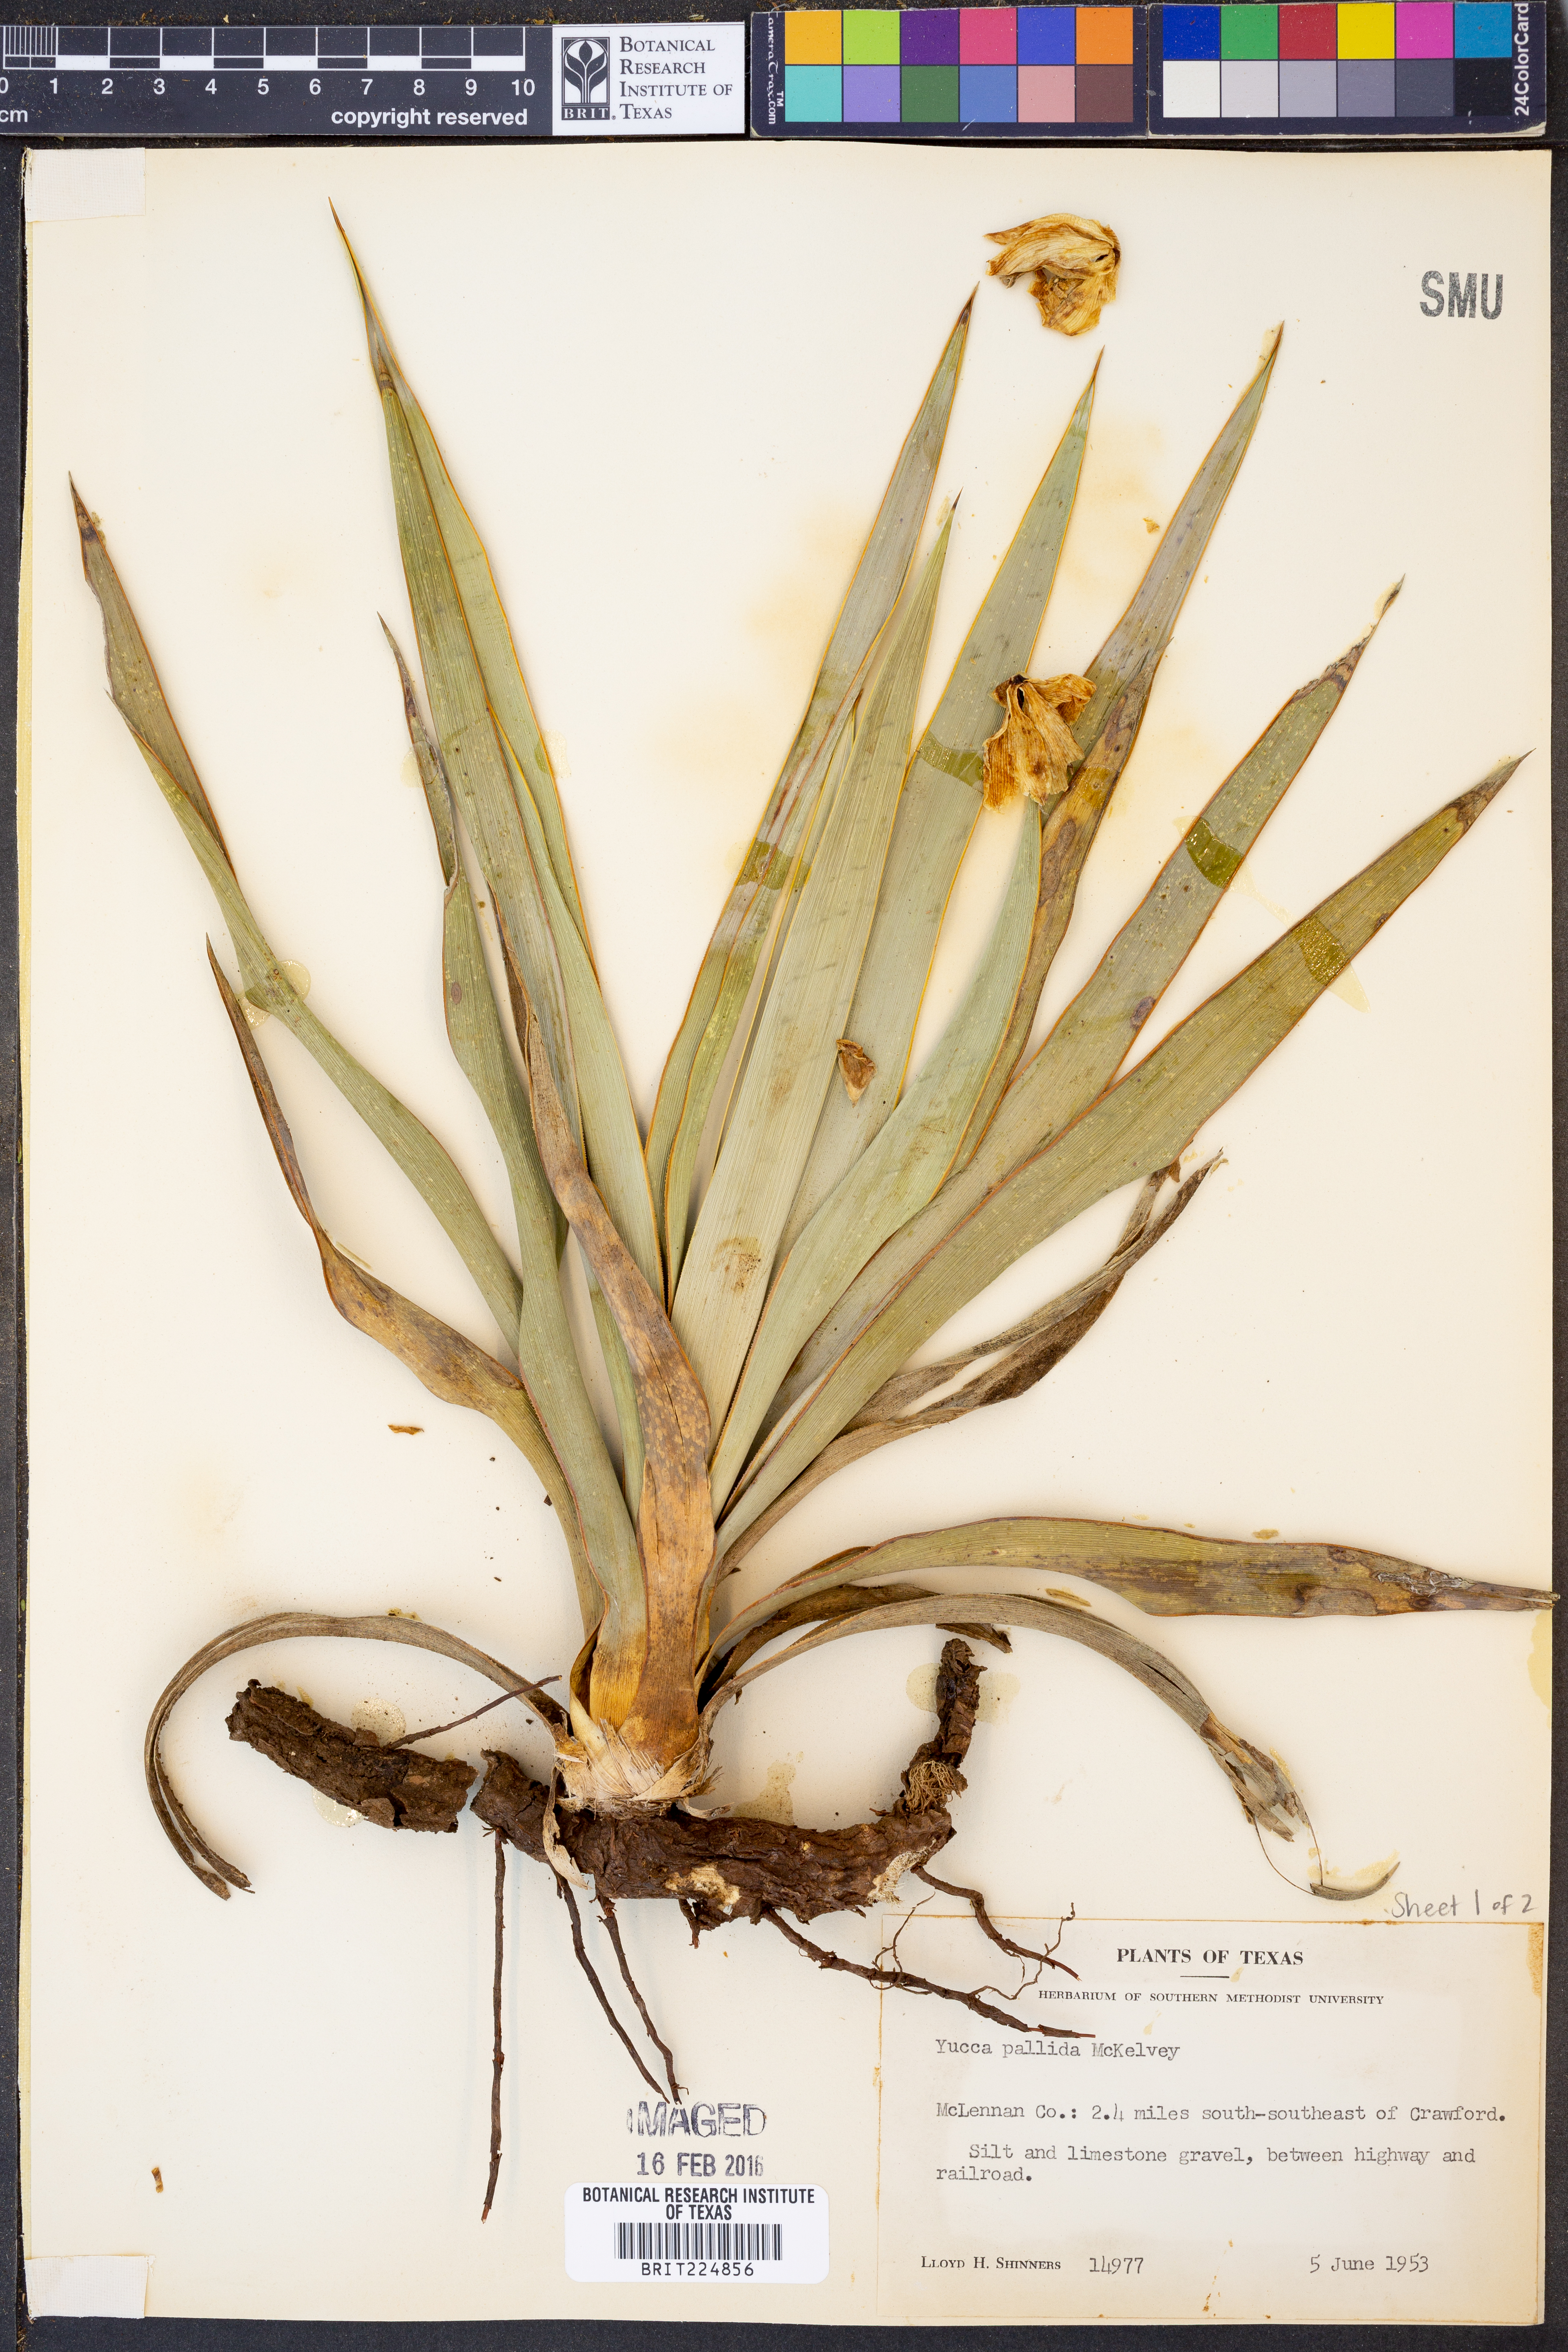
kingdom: Plantae
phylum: Tracheophyta
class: Liliopsida
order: Asparagales
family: Asparagaceae
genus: Yucca
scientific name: Yucca pallida
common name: Pale leaf yucca
